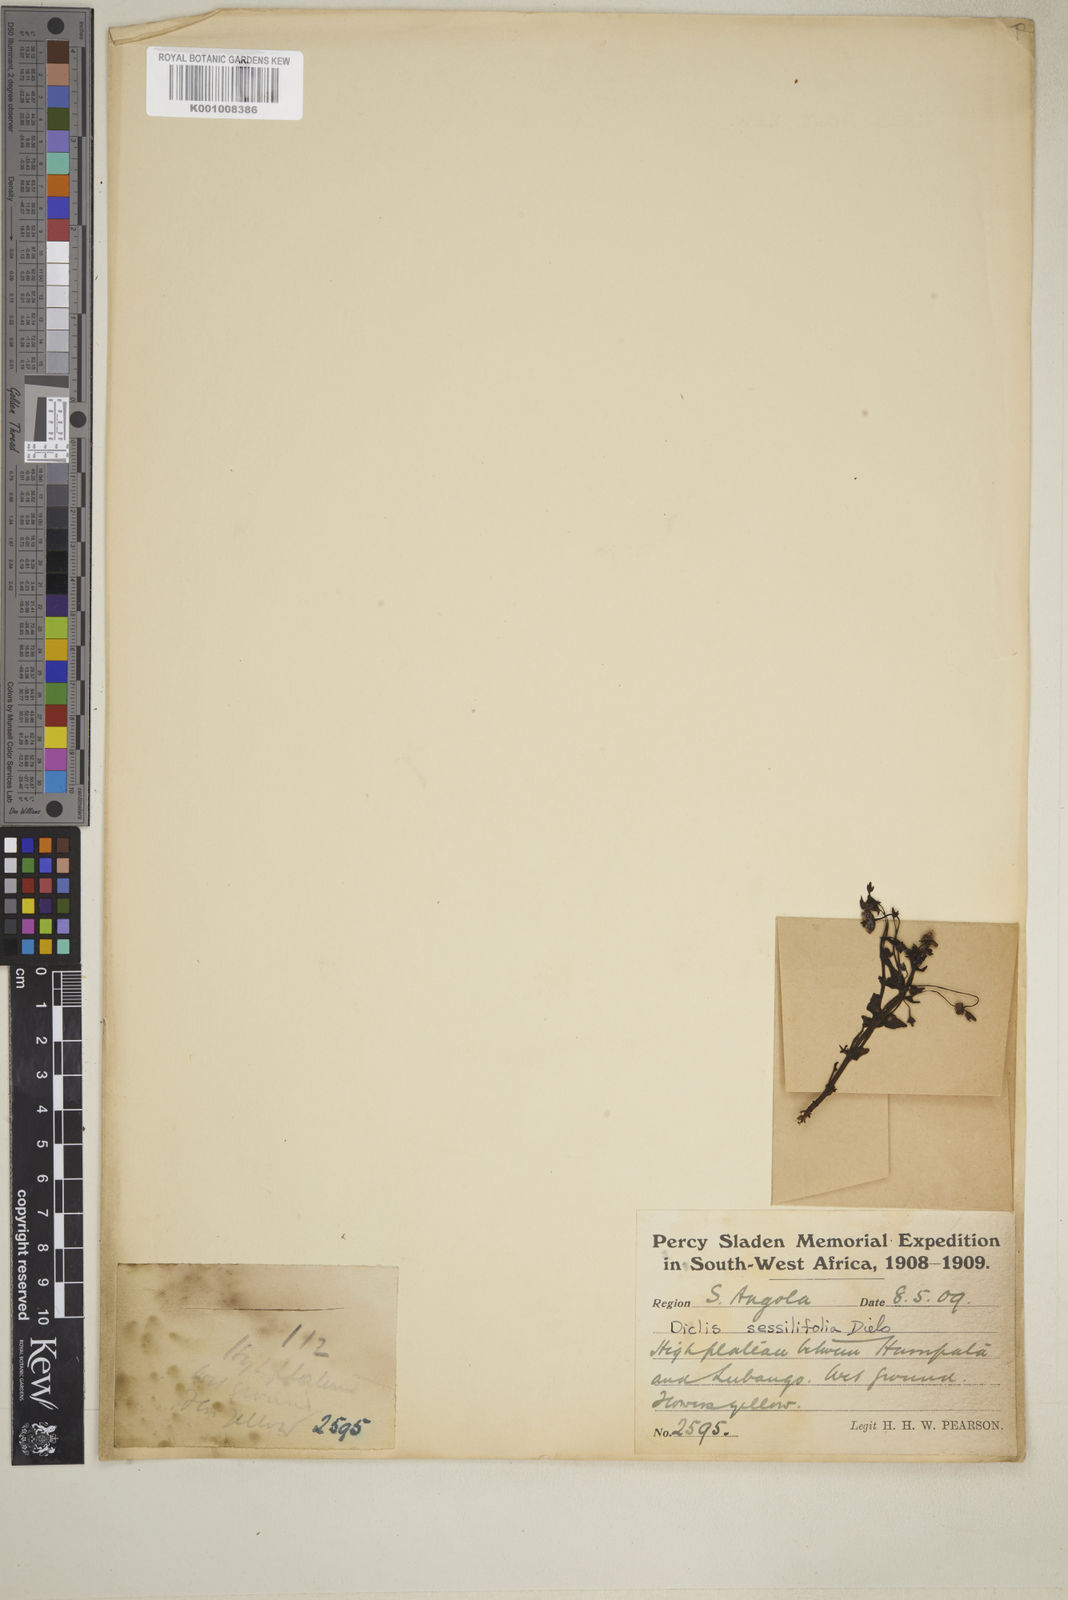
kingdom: Plantae
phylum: Tracheophyta
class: Magnoliopsida
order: Lamiales
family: Scrophulariaceae
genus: Diclis
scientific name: Diclis sessilifolia
